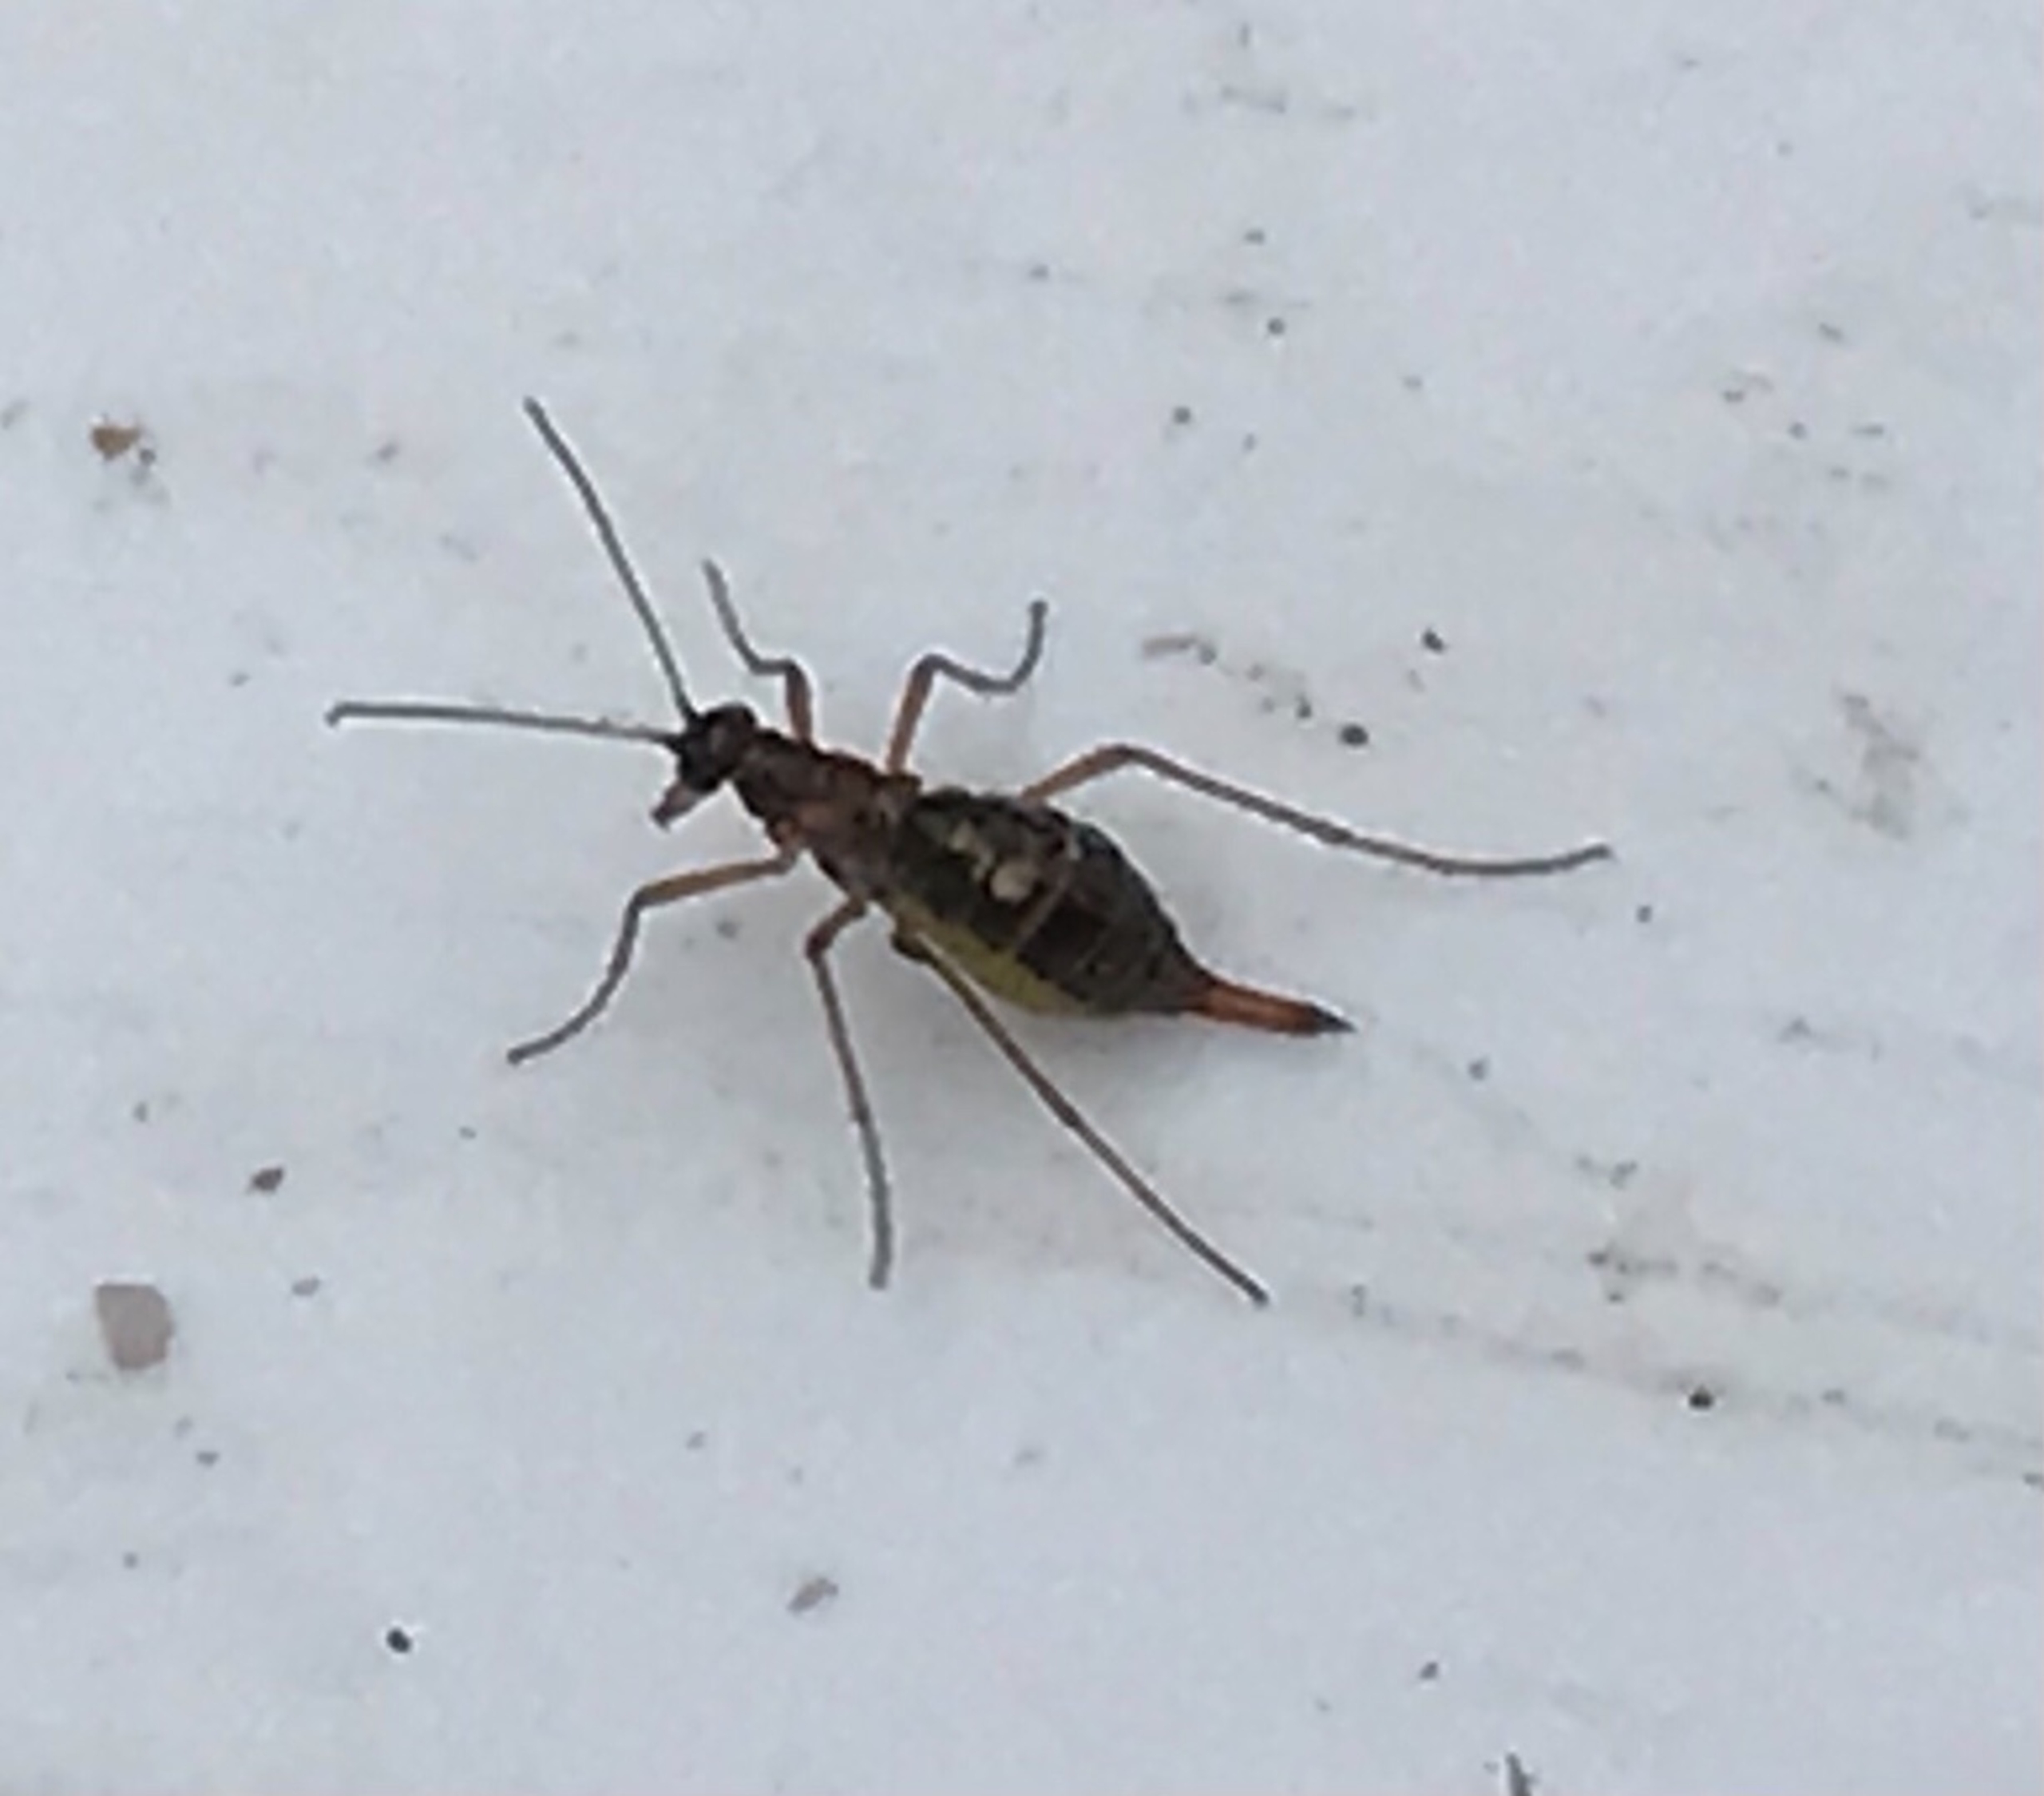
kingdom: Animalia
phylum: Arthropoda
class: Insecta
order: Mecoptera
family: Boreidae
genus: Boreus
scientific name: Boreus hyemalis
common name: Sneloppe
